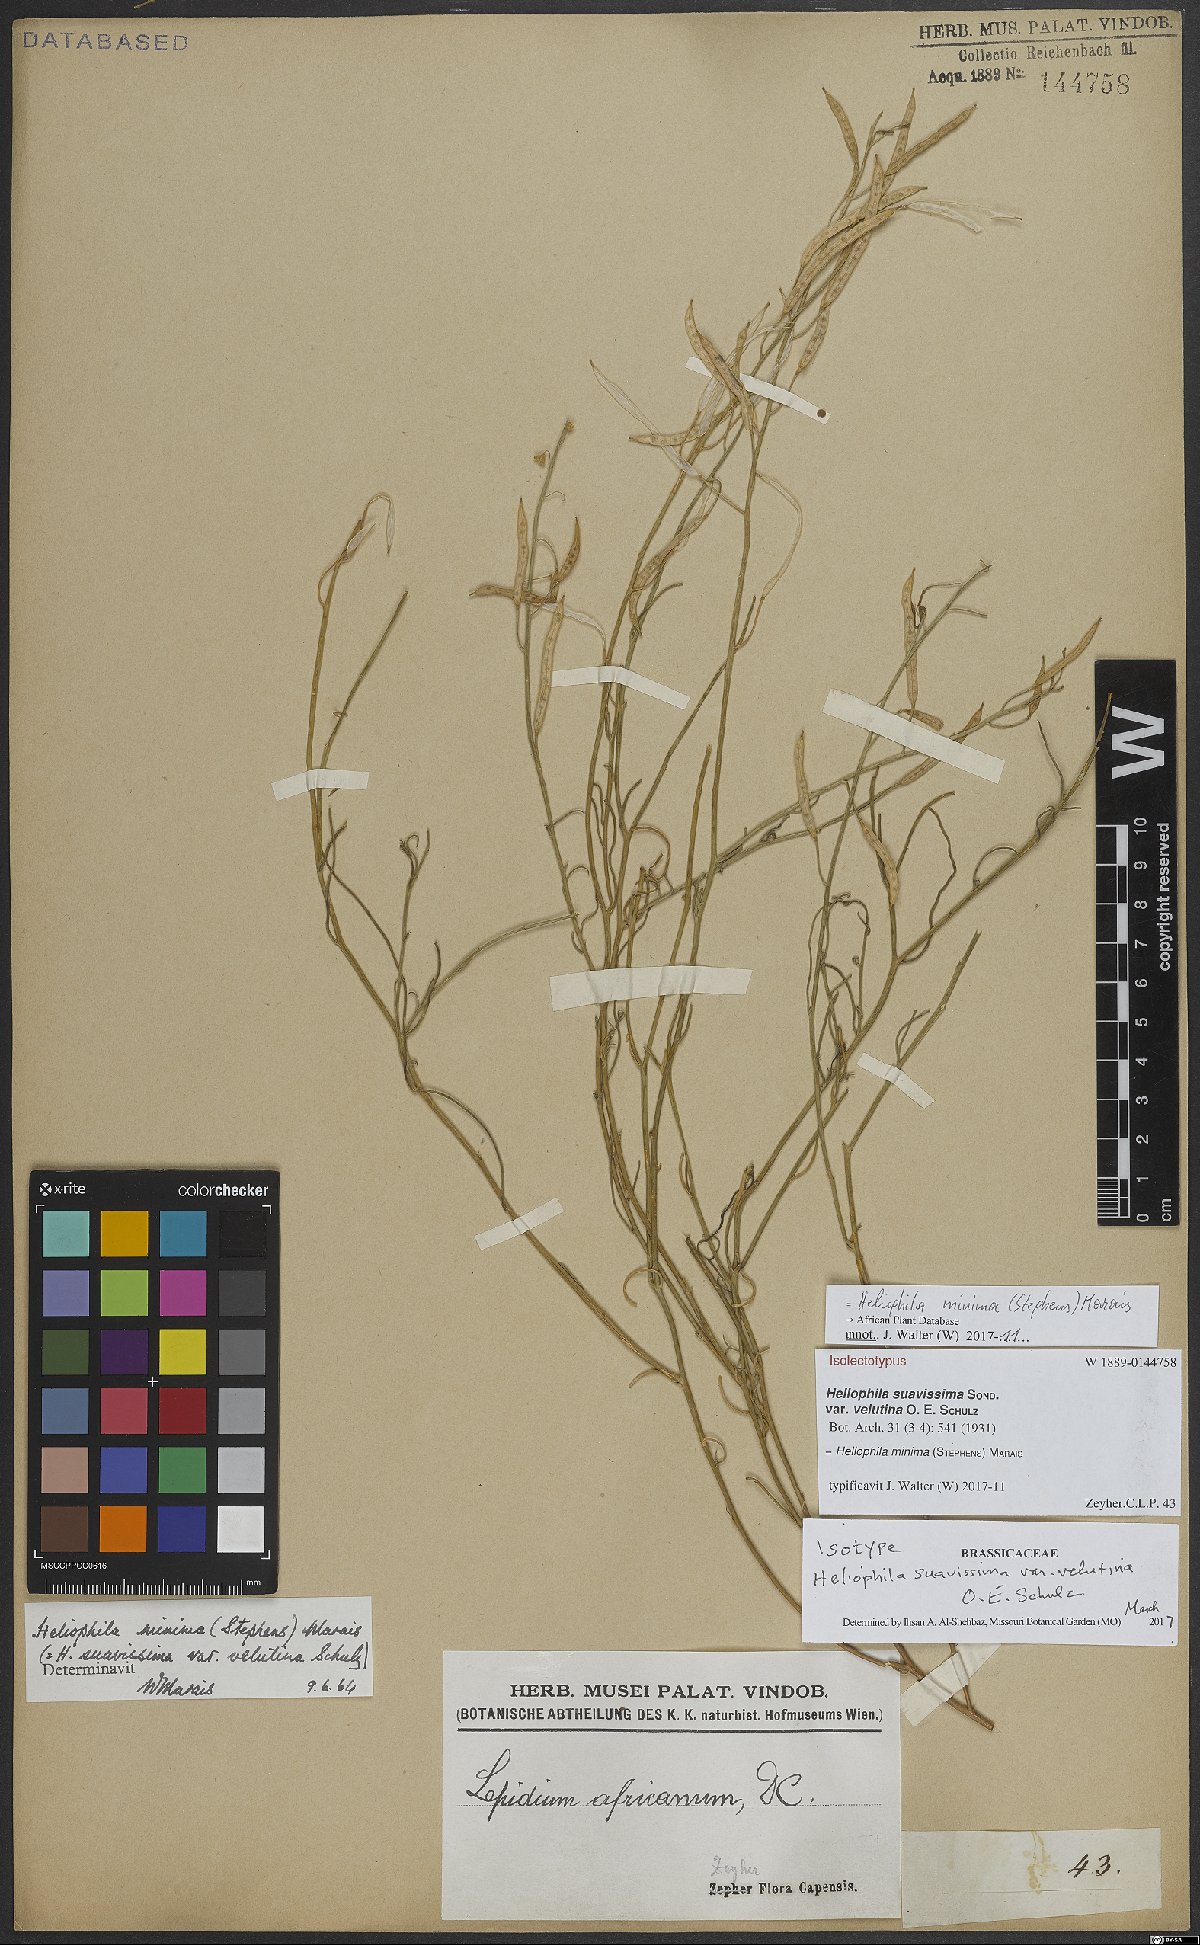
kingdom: Plantae
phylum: Tracheophyta
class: Magnoliopsida
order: Brassicales
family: Brassicaceae
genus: Heliophila
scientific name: Heliophila minima
